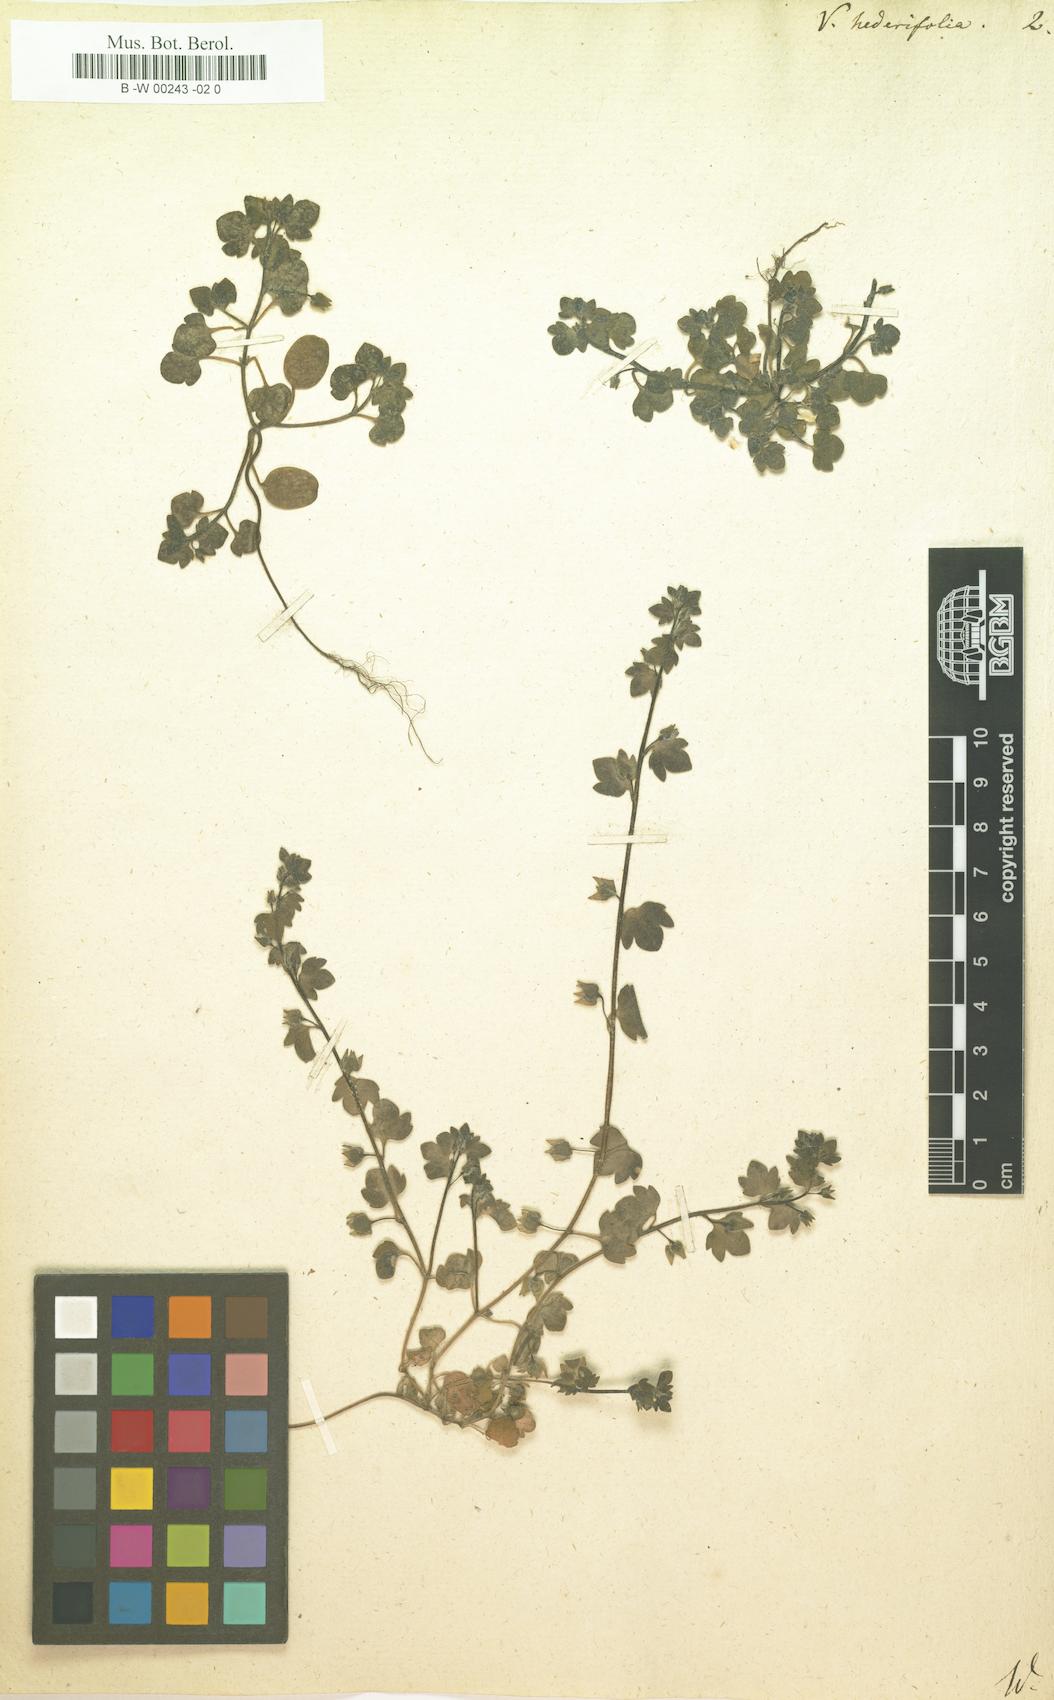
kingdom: Plantae
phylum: Tracheophyta
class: Magnoliopsida
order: Lamiales
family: Plantaginaceae
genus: Veronica
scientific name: Veronica hederifolia
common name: Ivy-leaved speedwell
